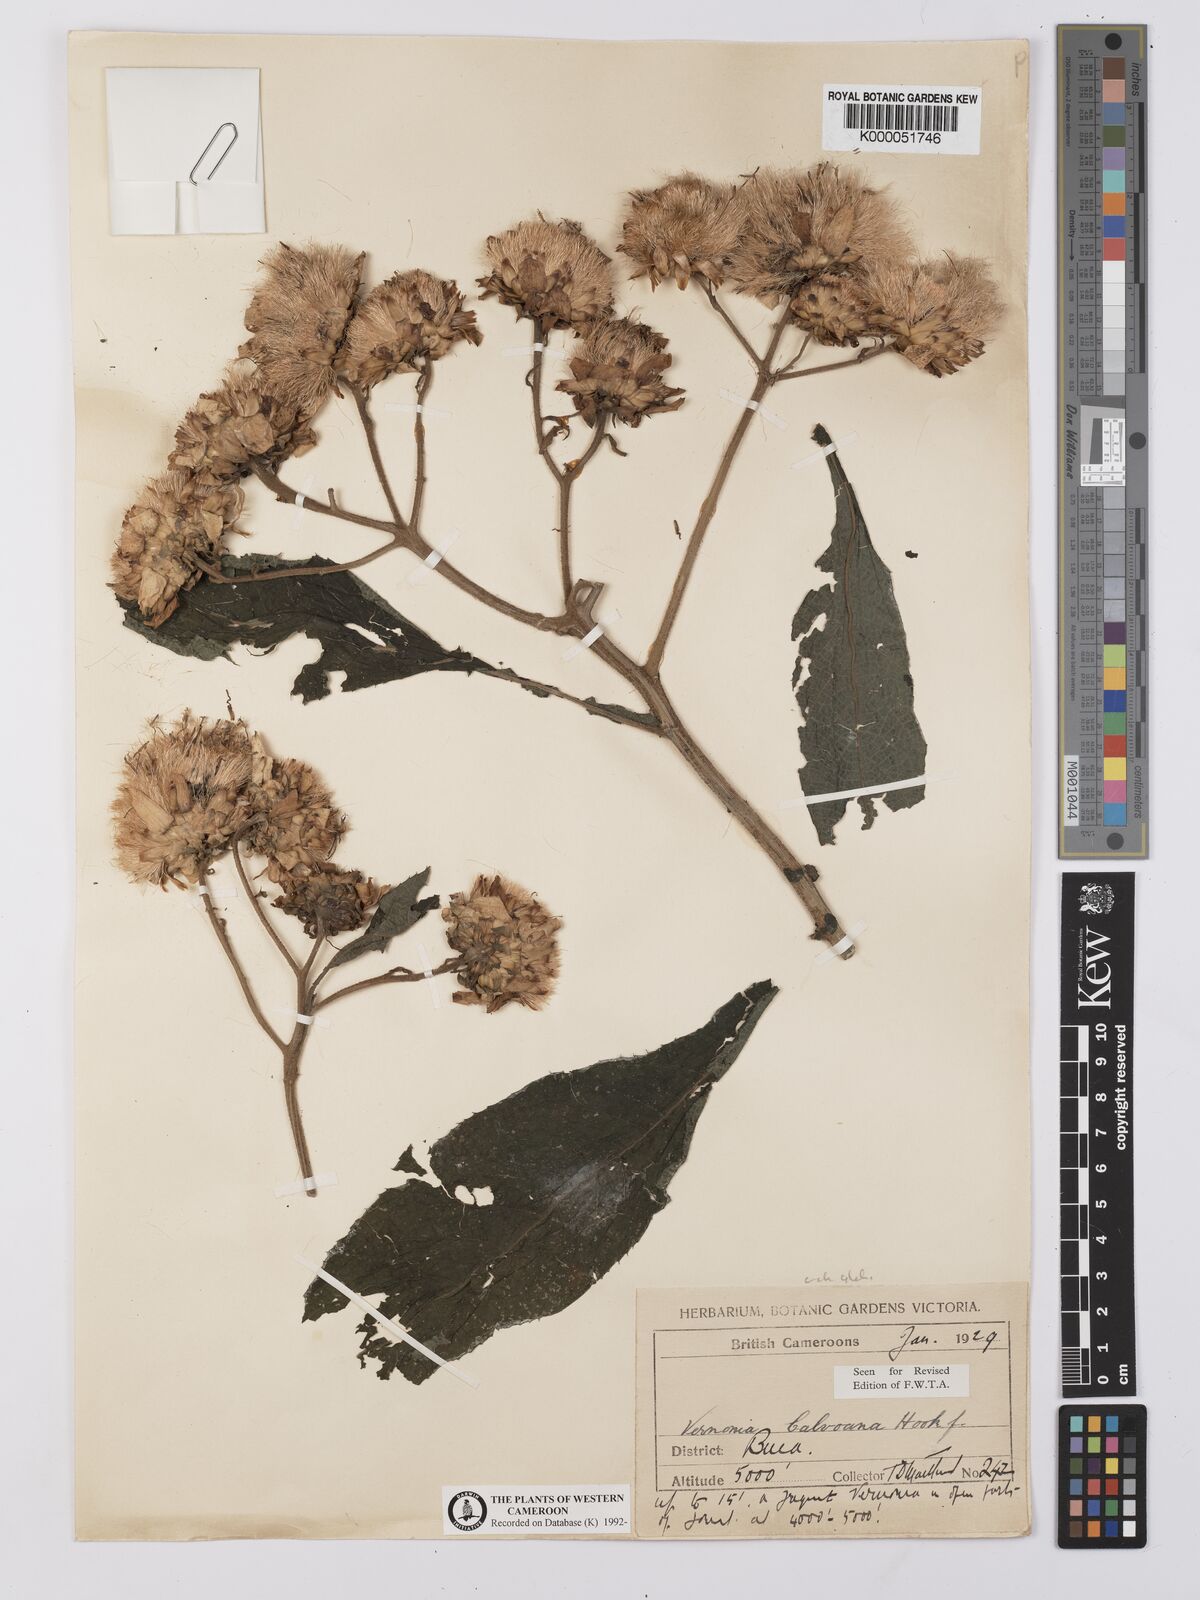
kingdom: Plantae
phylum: Tracheophyta
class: Magnoliopsida
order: Asterales
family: Asteraceae
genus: Baccharoides
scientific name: Baccharoides hymenolepis
